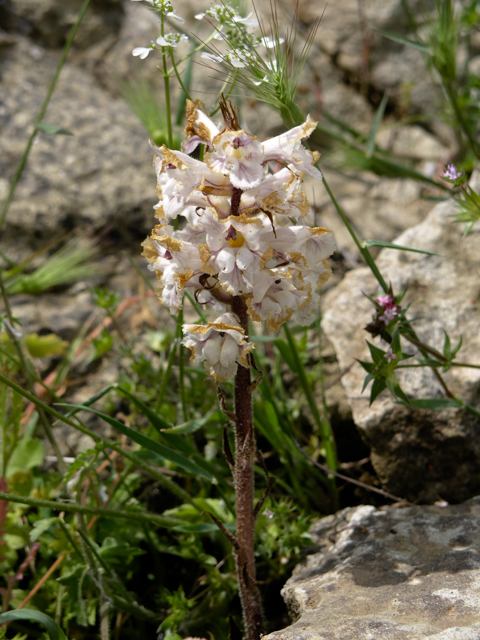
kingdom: Plantae
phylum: Tracheophyta
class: Magnoliopsida
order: Lamiales
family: Orobanchaceae
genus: Orobanche
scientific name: Orobanche
